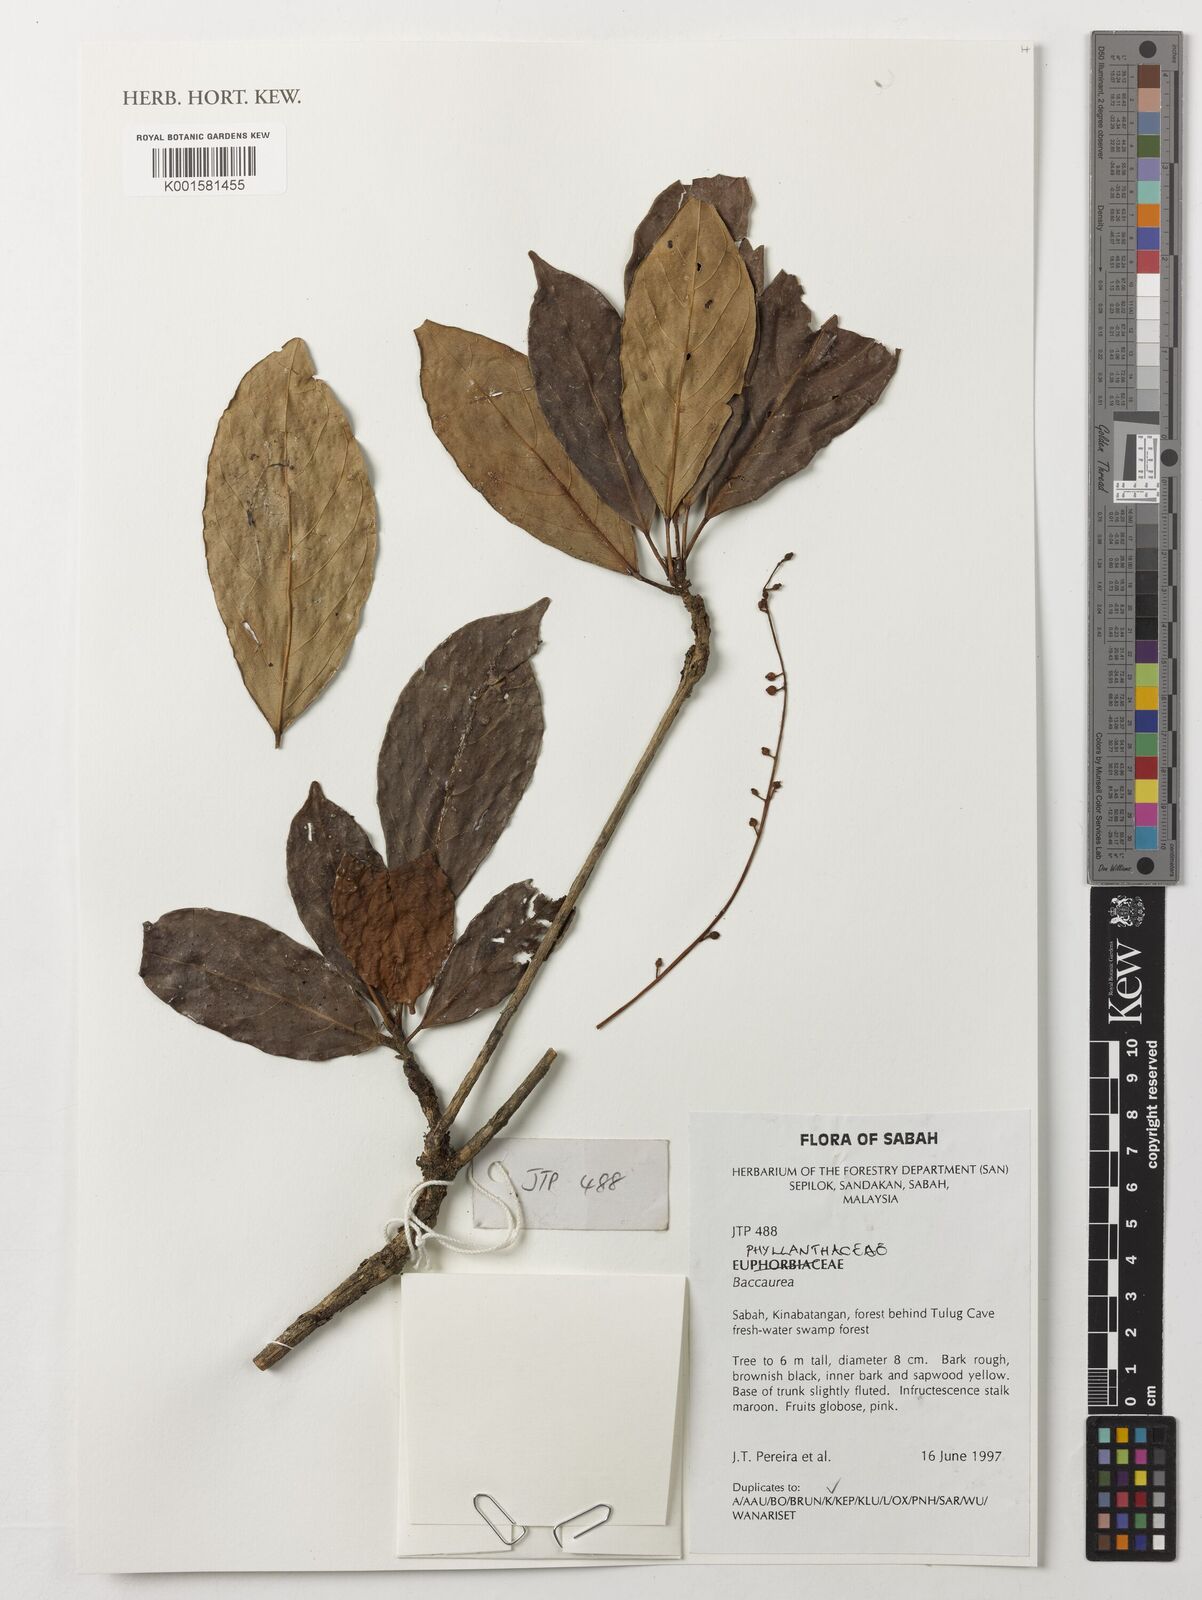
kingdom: Plantae
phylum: Tracheophyta
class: Magnoliopsida
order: Malpighiales
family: Phyllanthaceae
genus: Baccaurea
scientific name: Baccaurea
